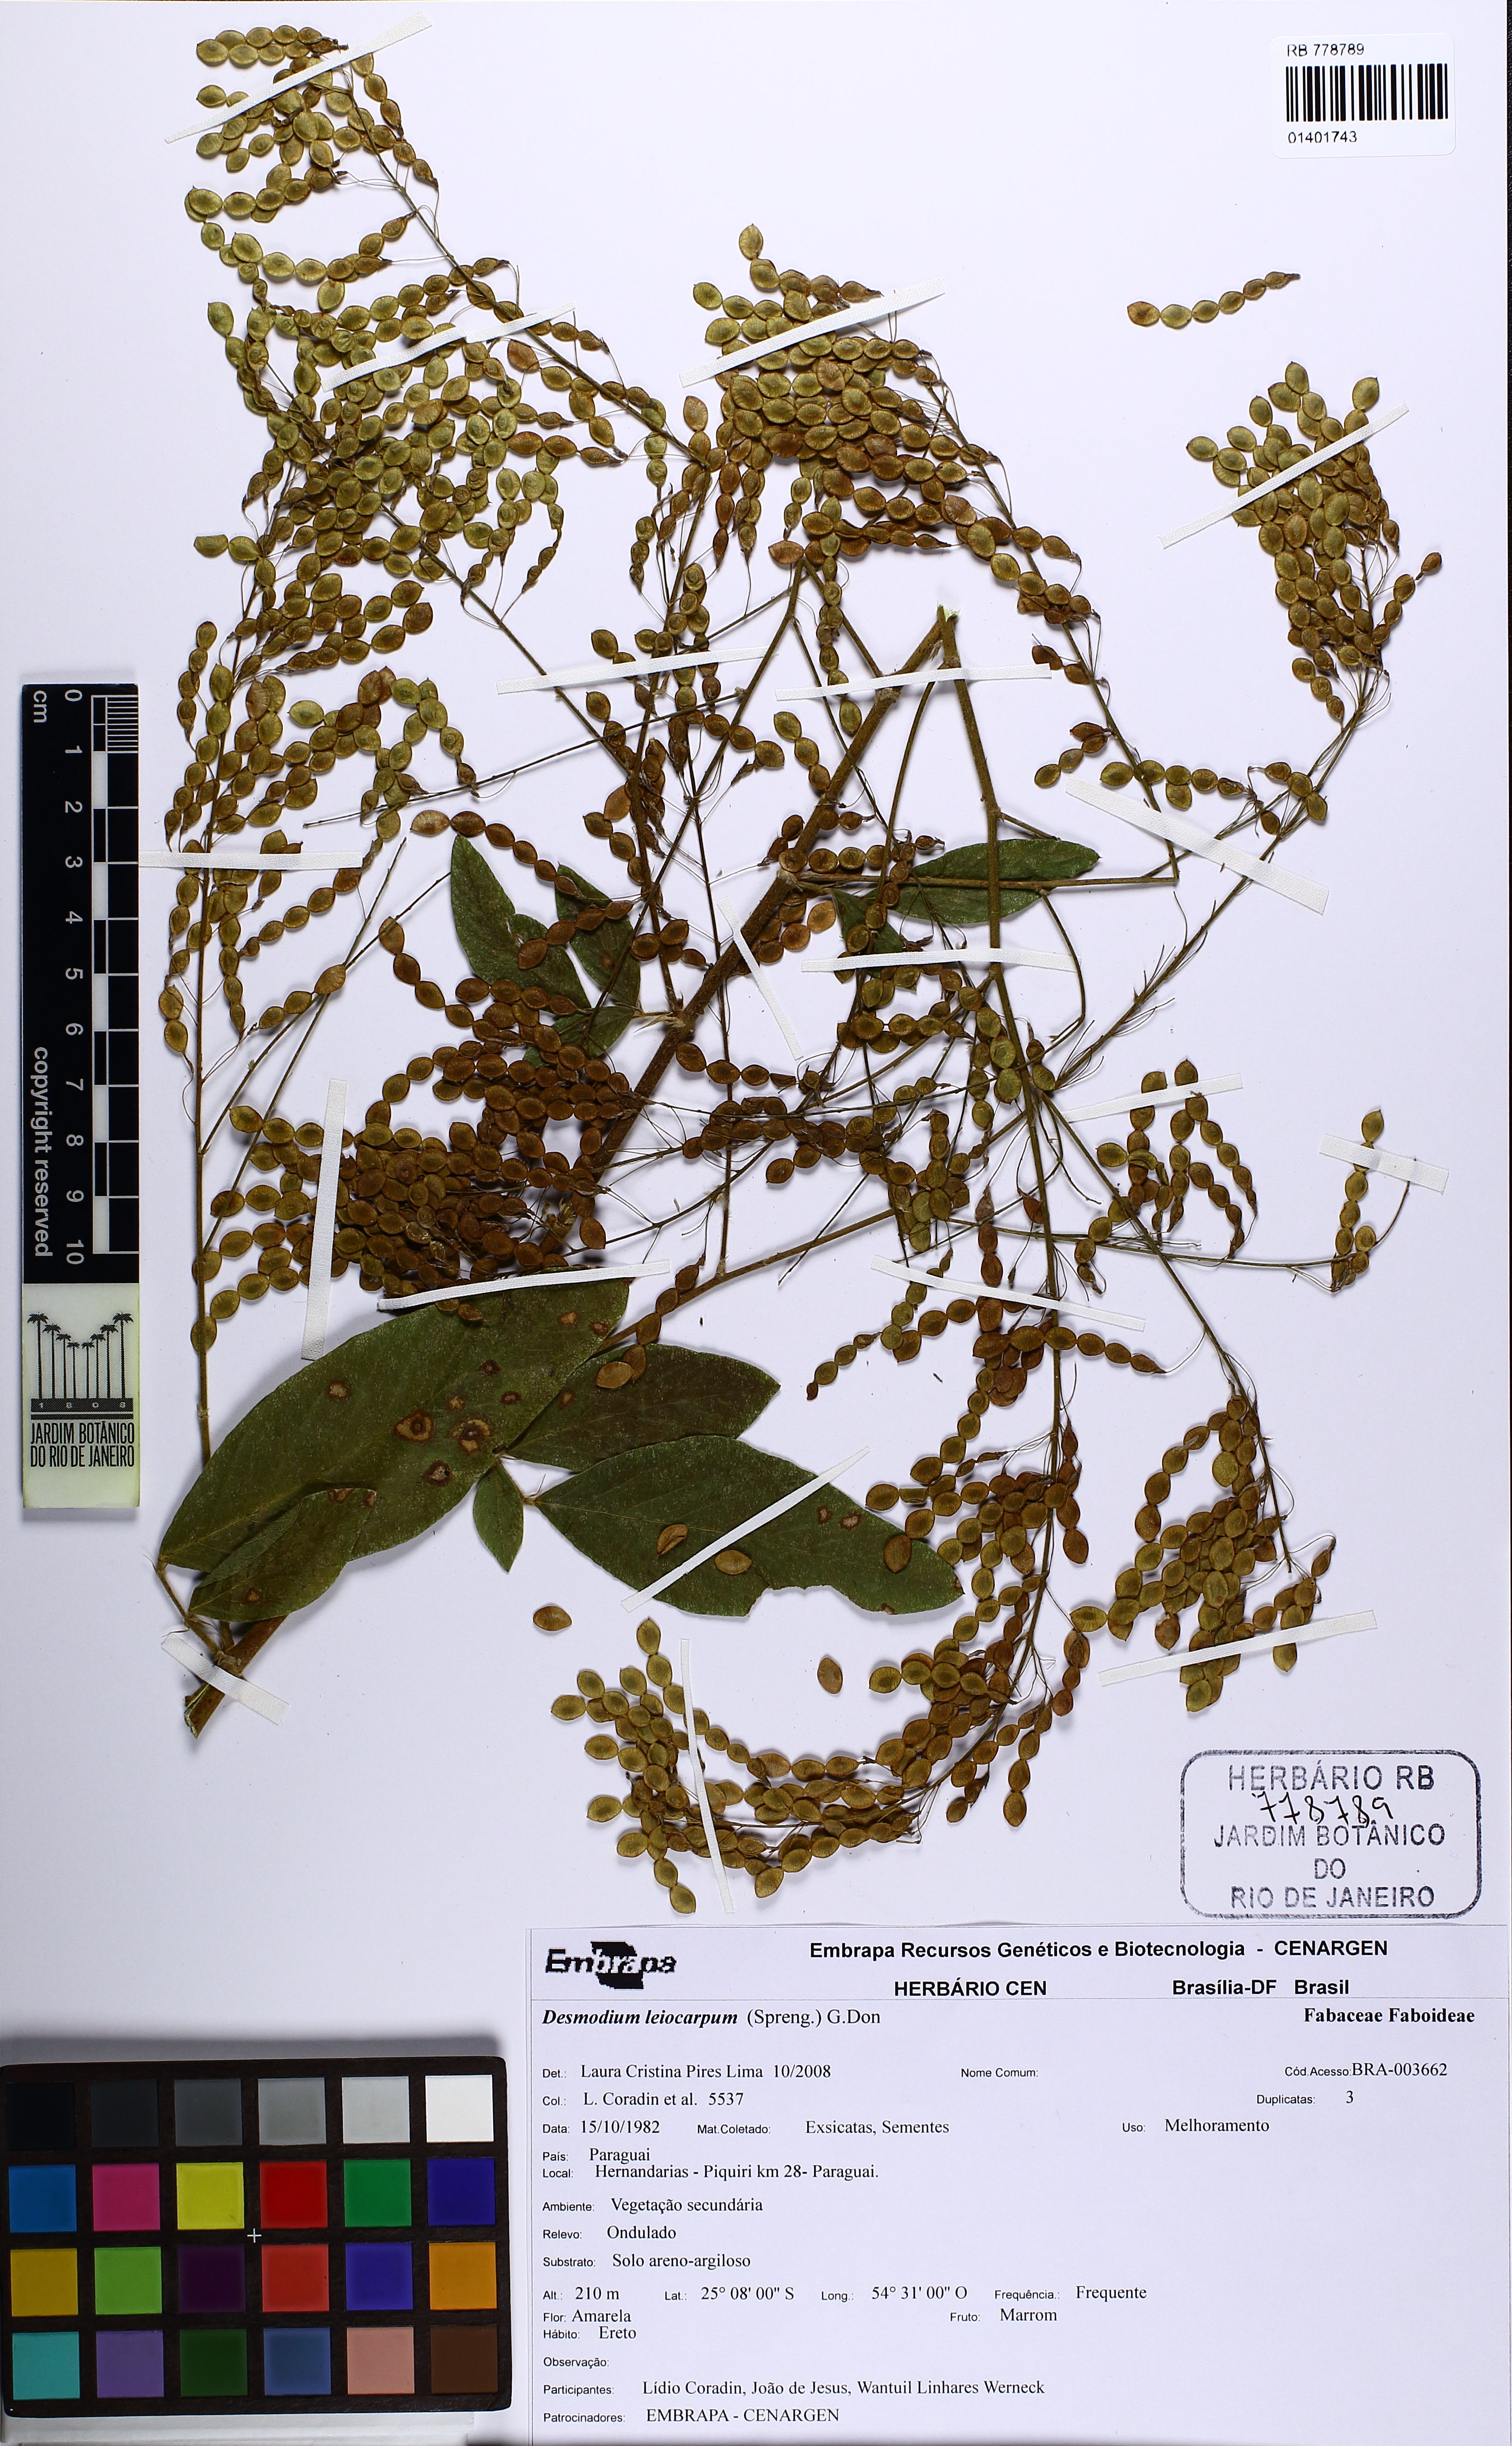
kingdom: Plantae
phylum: Tracheophyta
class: Magnoliopsida
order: Fabales
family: Fabaceae
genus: Desmodium
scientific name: Desmodium leiocarpum
